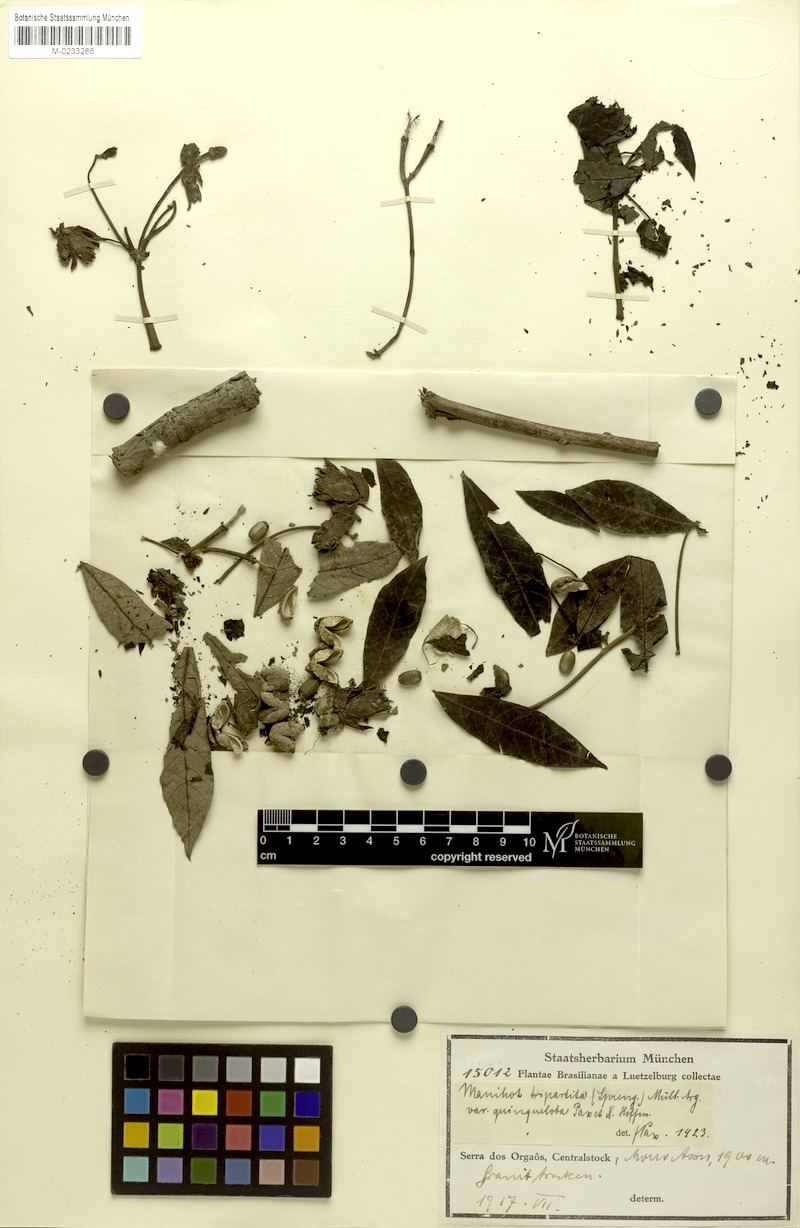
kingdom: Plantae
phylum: Tracheophyta
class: Magnoliopsida
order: Malpighiales
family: Euphorbiaceae
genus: Manihot
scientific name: Manihot pohlii
